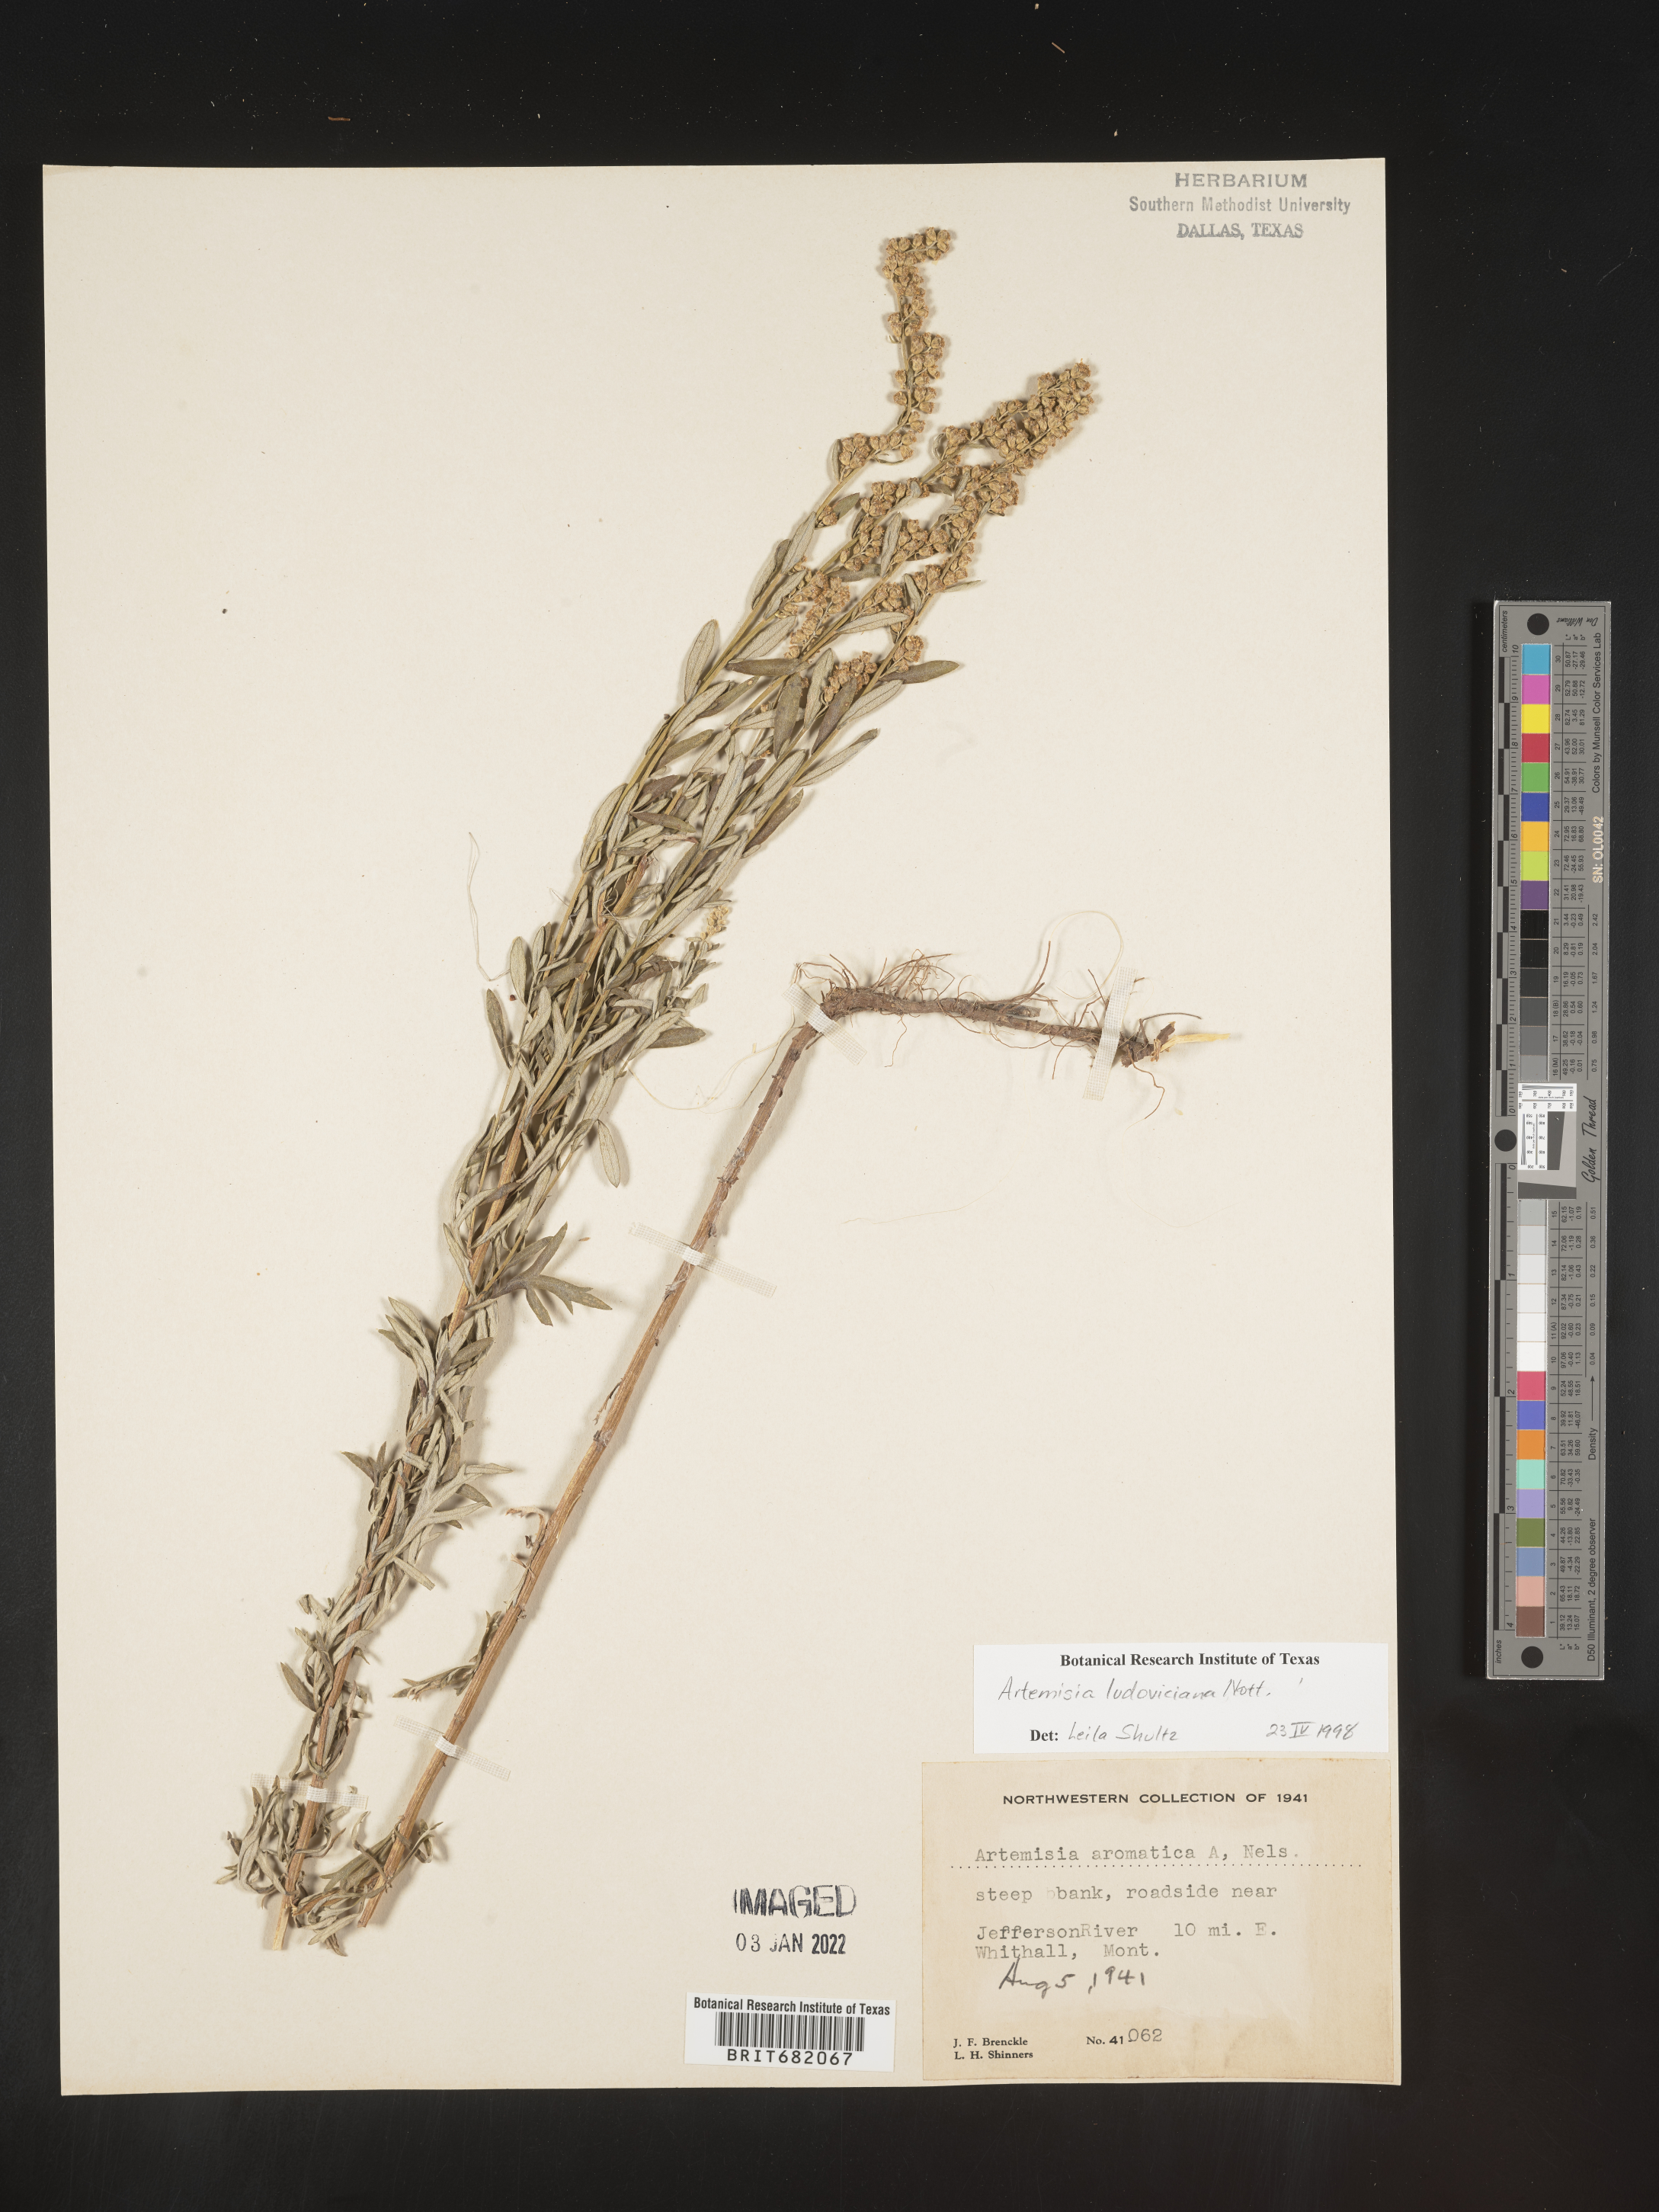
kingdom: Plantae
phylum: Tracheophyta
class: Magnoliopsida
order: Asterales
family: Asteraceae
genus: Artemisia
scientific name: Artemisia ludoviciana
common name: Western mugwort
